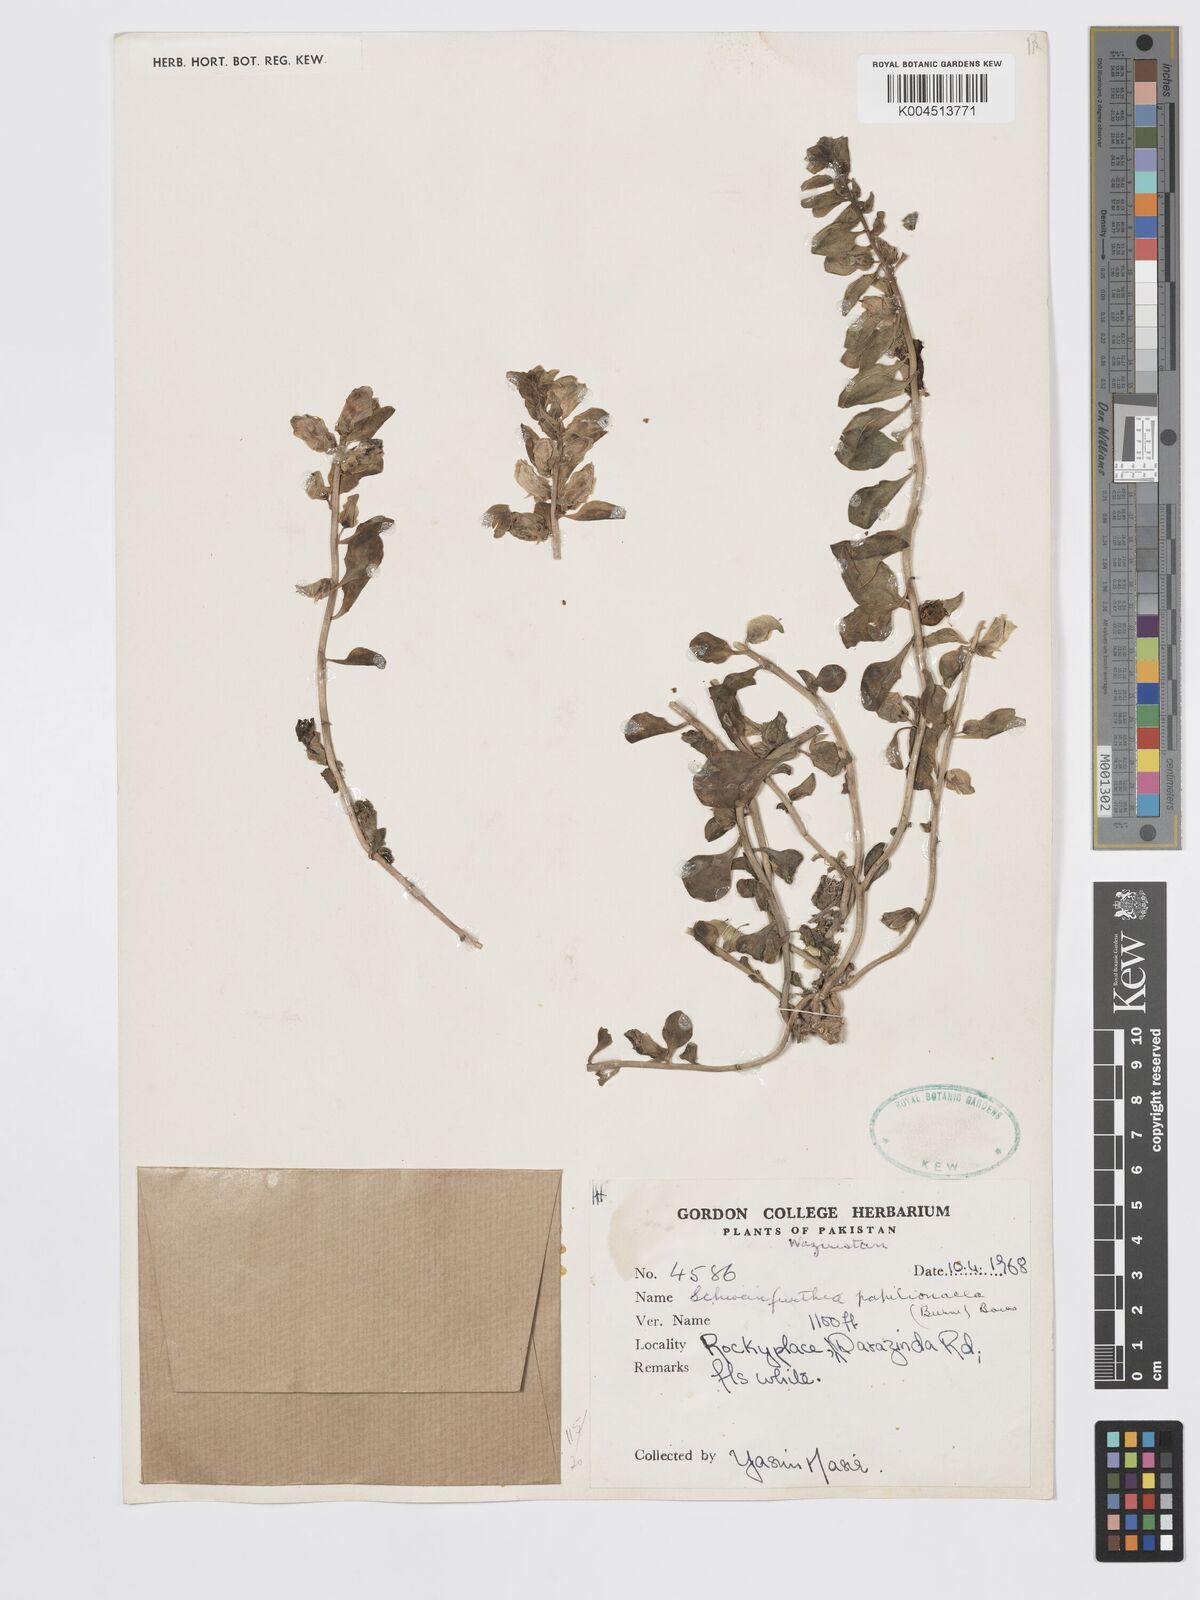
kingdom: Plantae
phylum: Tracheophyta
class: Magnoliopsida
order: Lamiales
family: Plantaginaceae
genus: Schweinfurthia
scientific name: Schweinfurthia papilionacea
